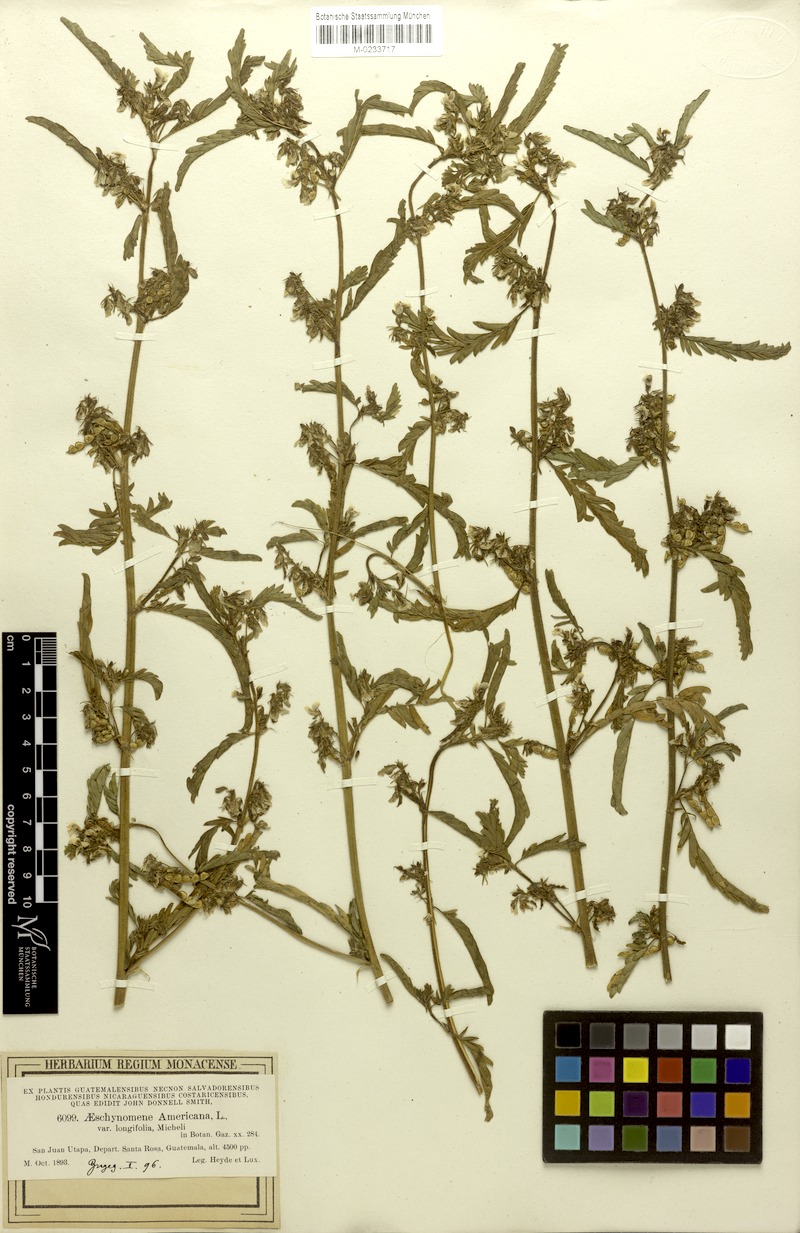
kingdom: Plantae
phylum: Tracheophyta
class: Magnoliopsida
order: Fabales
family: Fabaceae
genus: Aeschynomene
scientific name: Aeschynomene villosa
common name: Hairy-jointvetch
